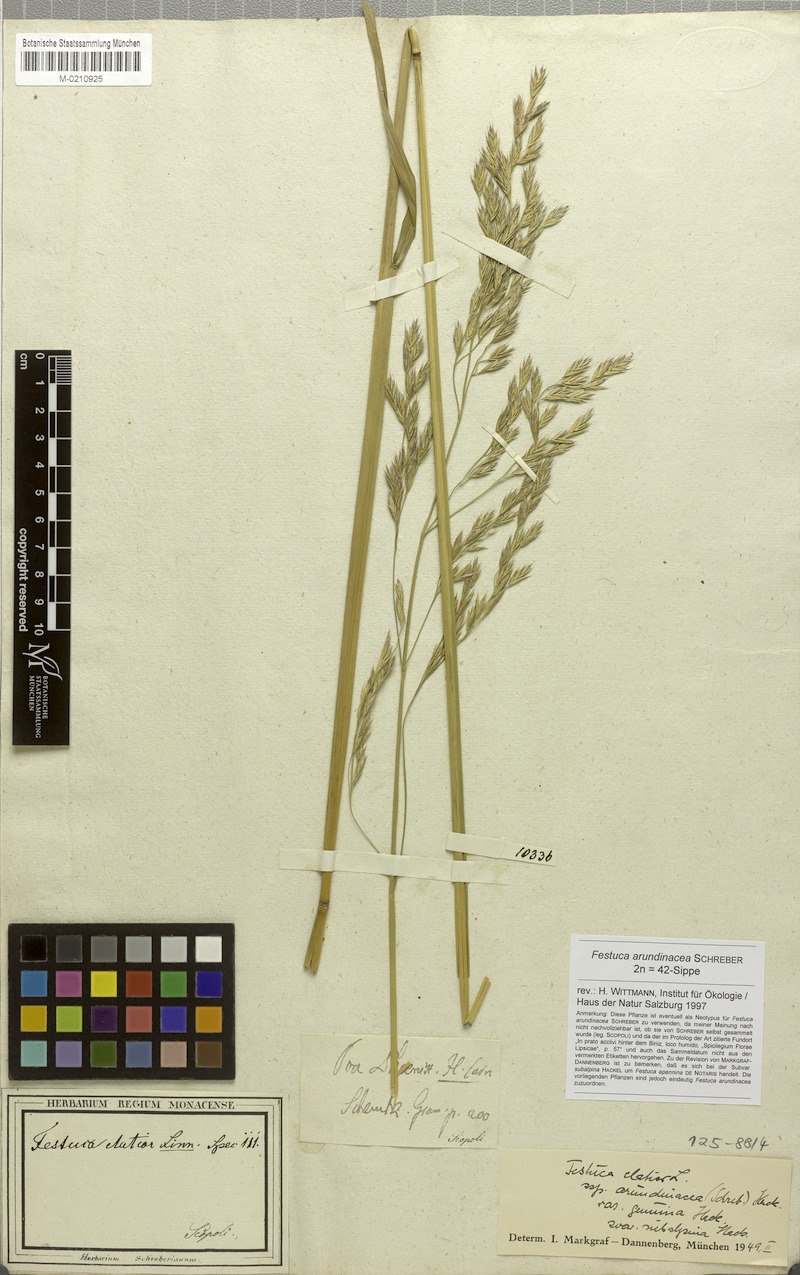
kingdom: Plantae
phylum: Tracheophyta
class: Liliopsida
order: Poales
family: Poaceae
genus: Lolium
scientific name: Lolium arundinaceum
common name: Reed fescue
